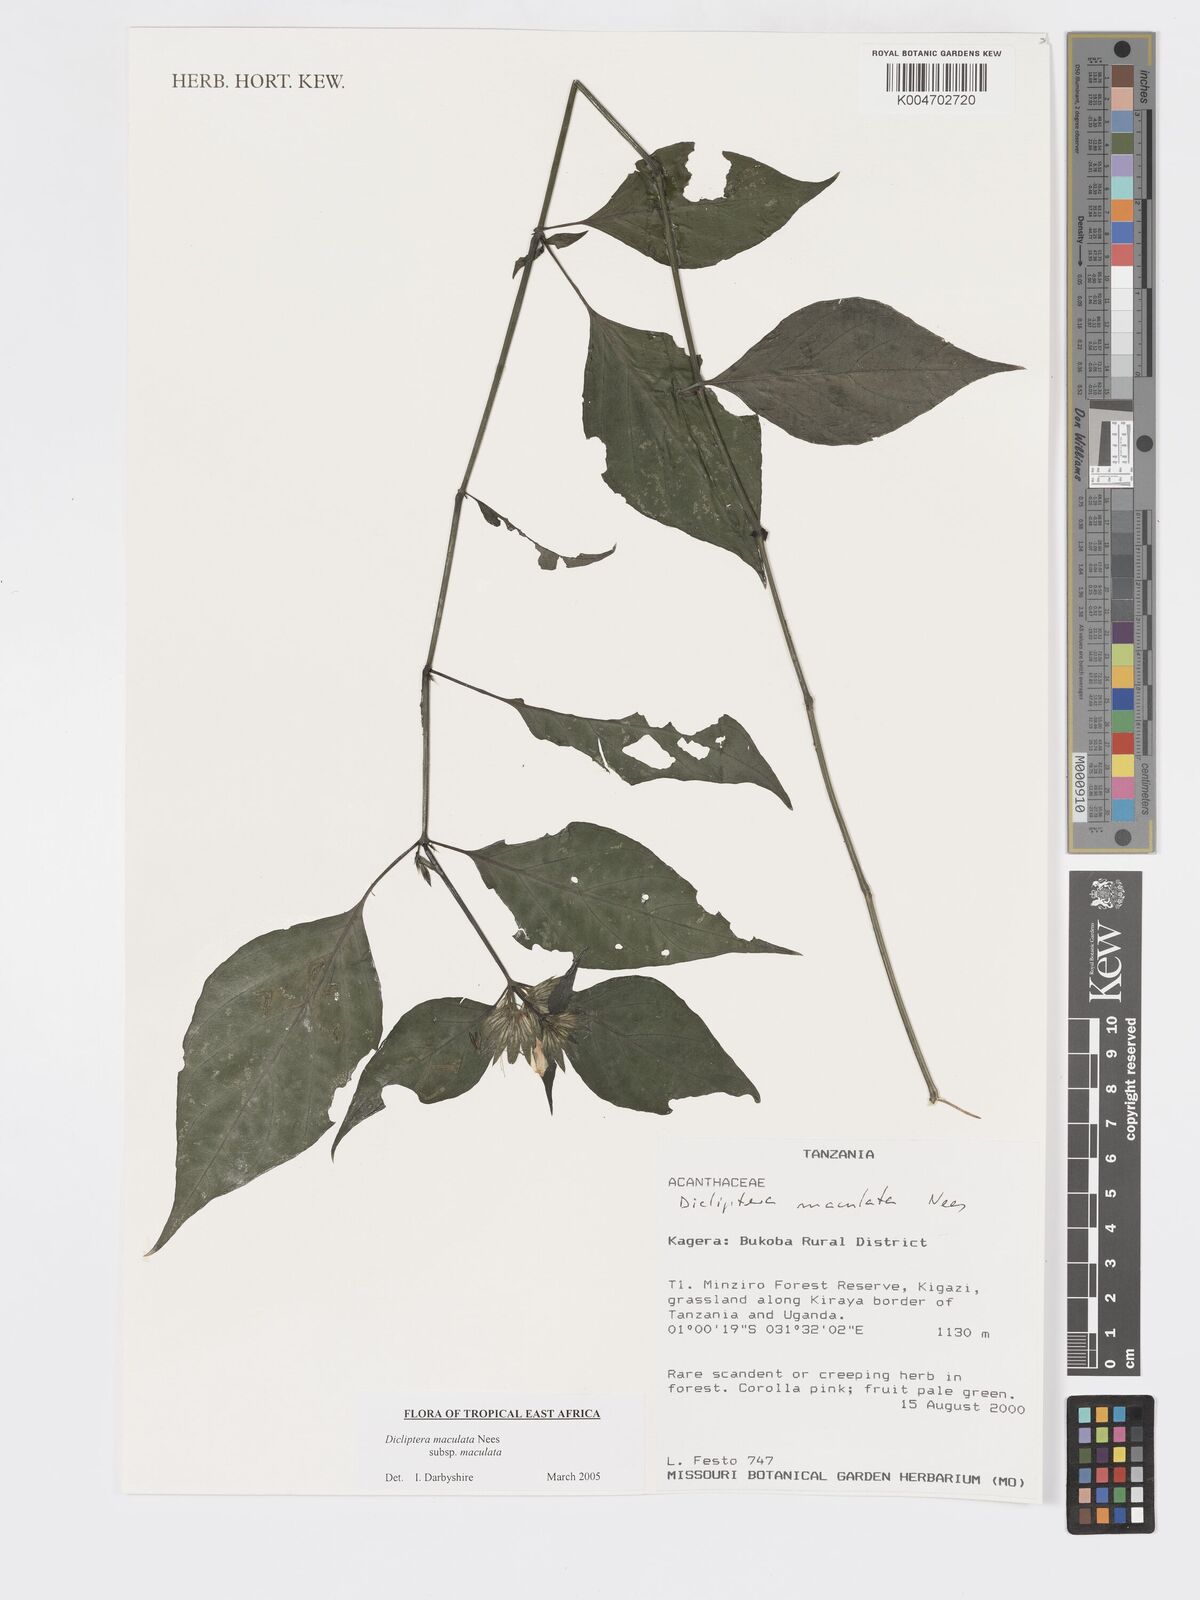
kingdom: Plantae
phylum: Tracheophyta
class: Magnoliopsida
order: Lamiales
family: Acanthaceae
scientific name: Acanthaceae
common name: Acanthaceae
